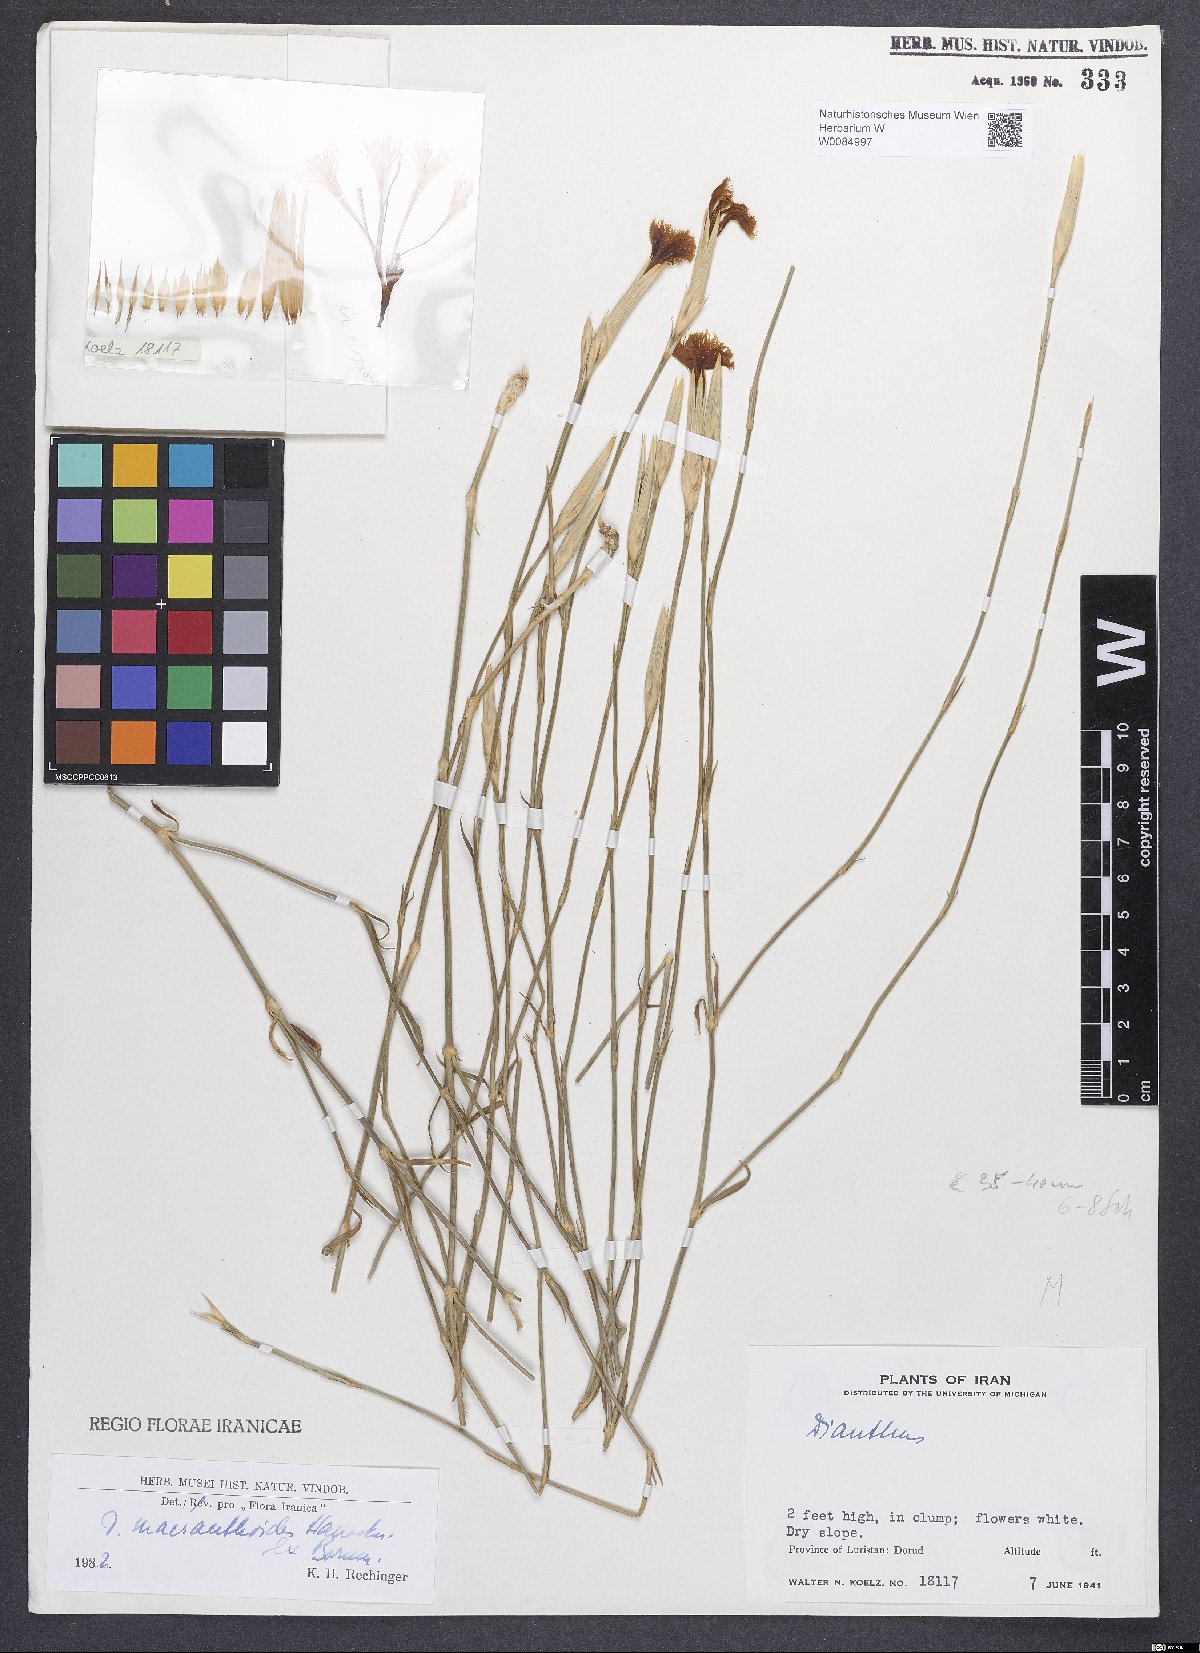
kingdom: Plantae
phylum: Tracheophyta
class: Magnoliopsida
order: Caryophyllales
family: Caryophyllaceae
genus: Dianthus
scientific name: Dianthus macranthoides
